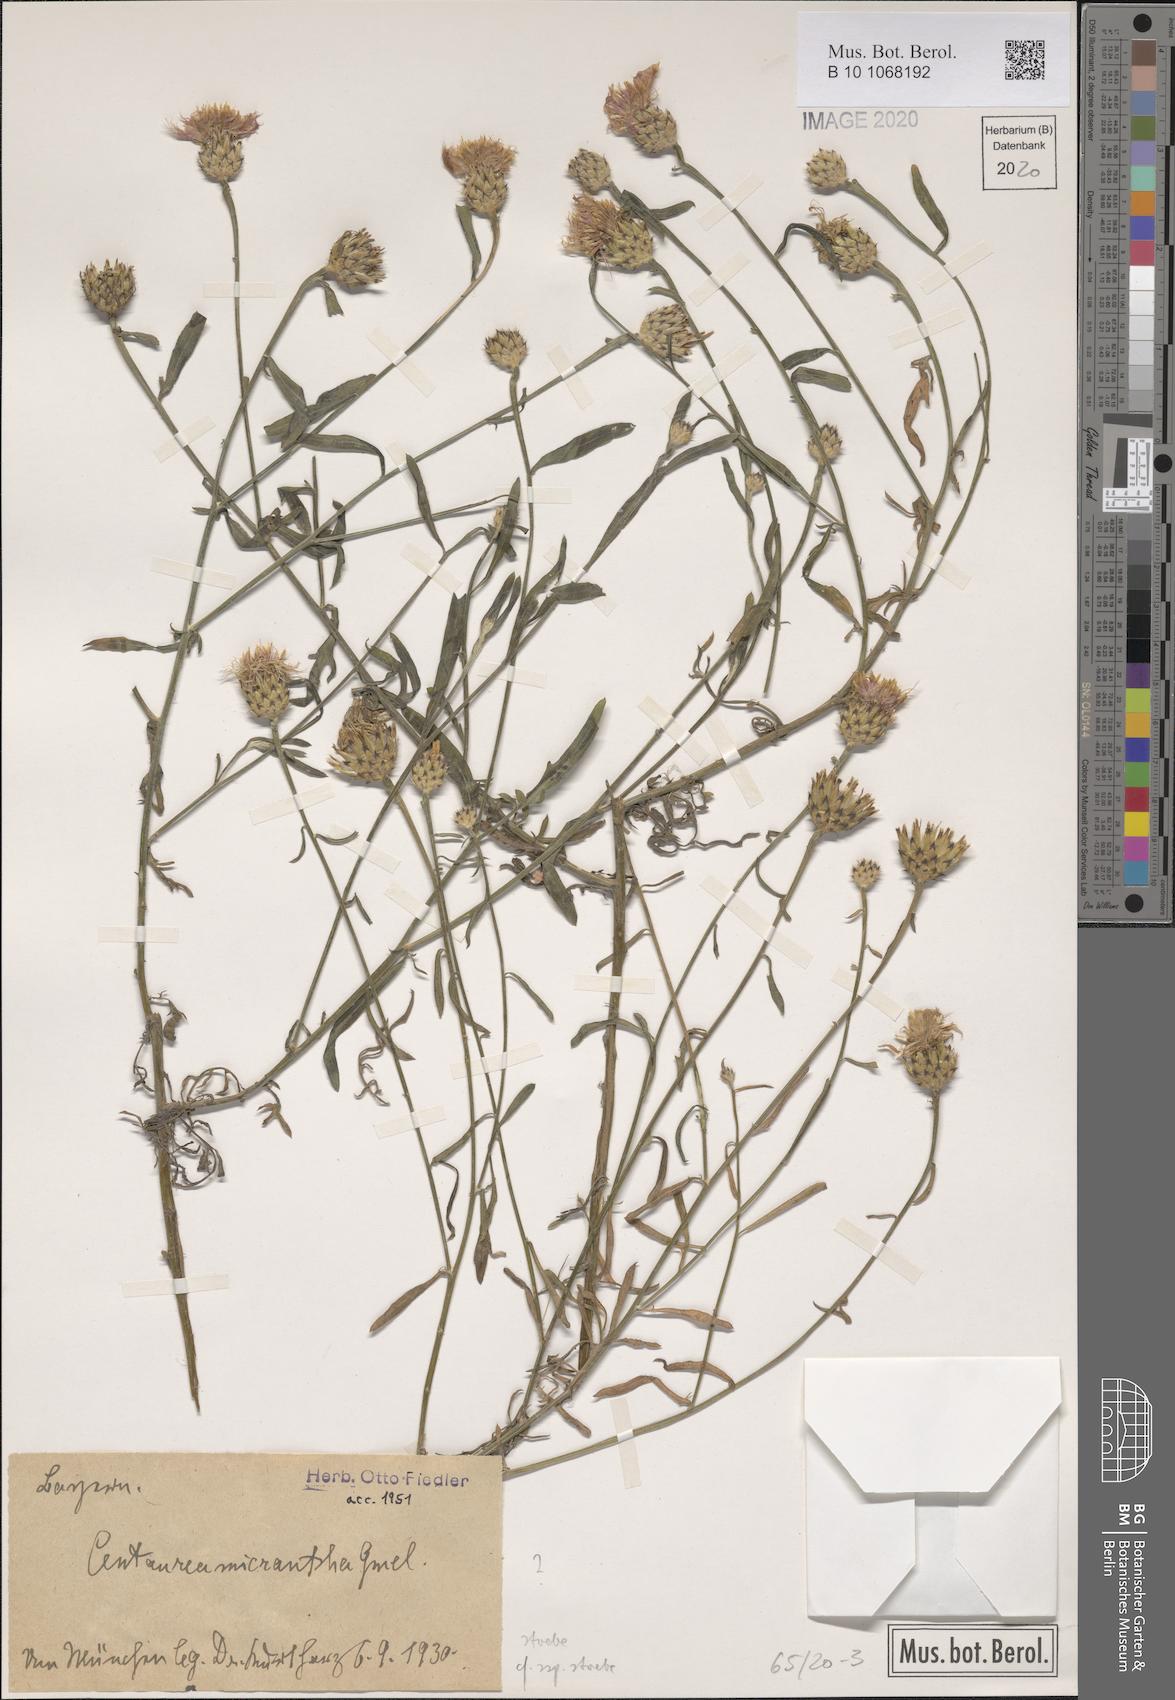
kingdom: Plantae
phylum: Tracheophyta
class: Magnoliopsida
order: Asterales
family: Asteraceae
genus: Centaurea
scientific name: Centaurea stoebe
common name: Spotted knapweed
